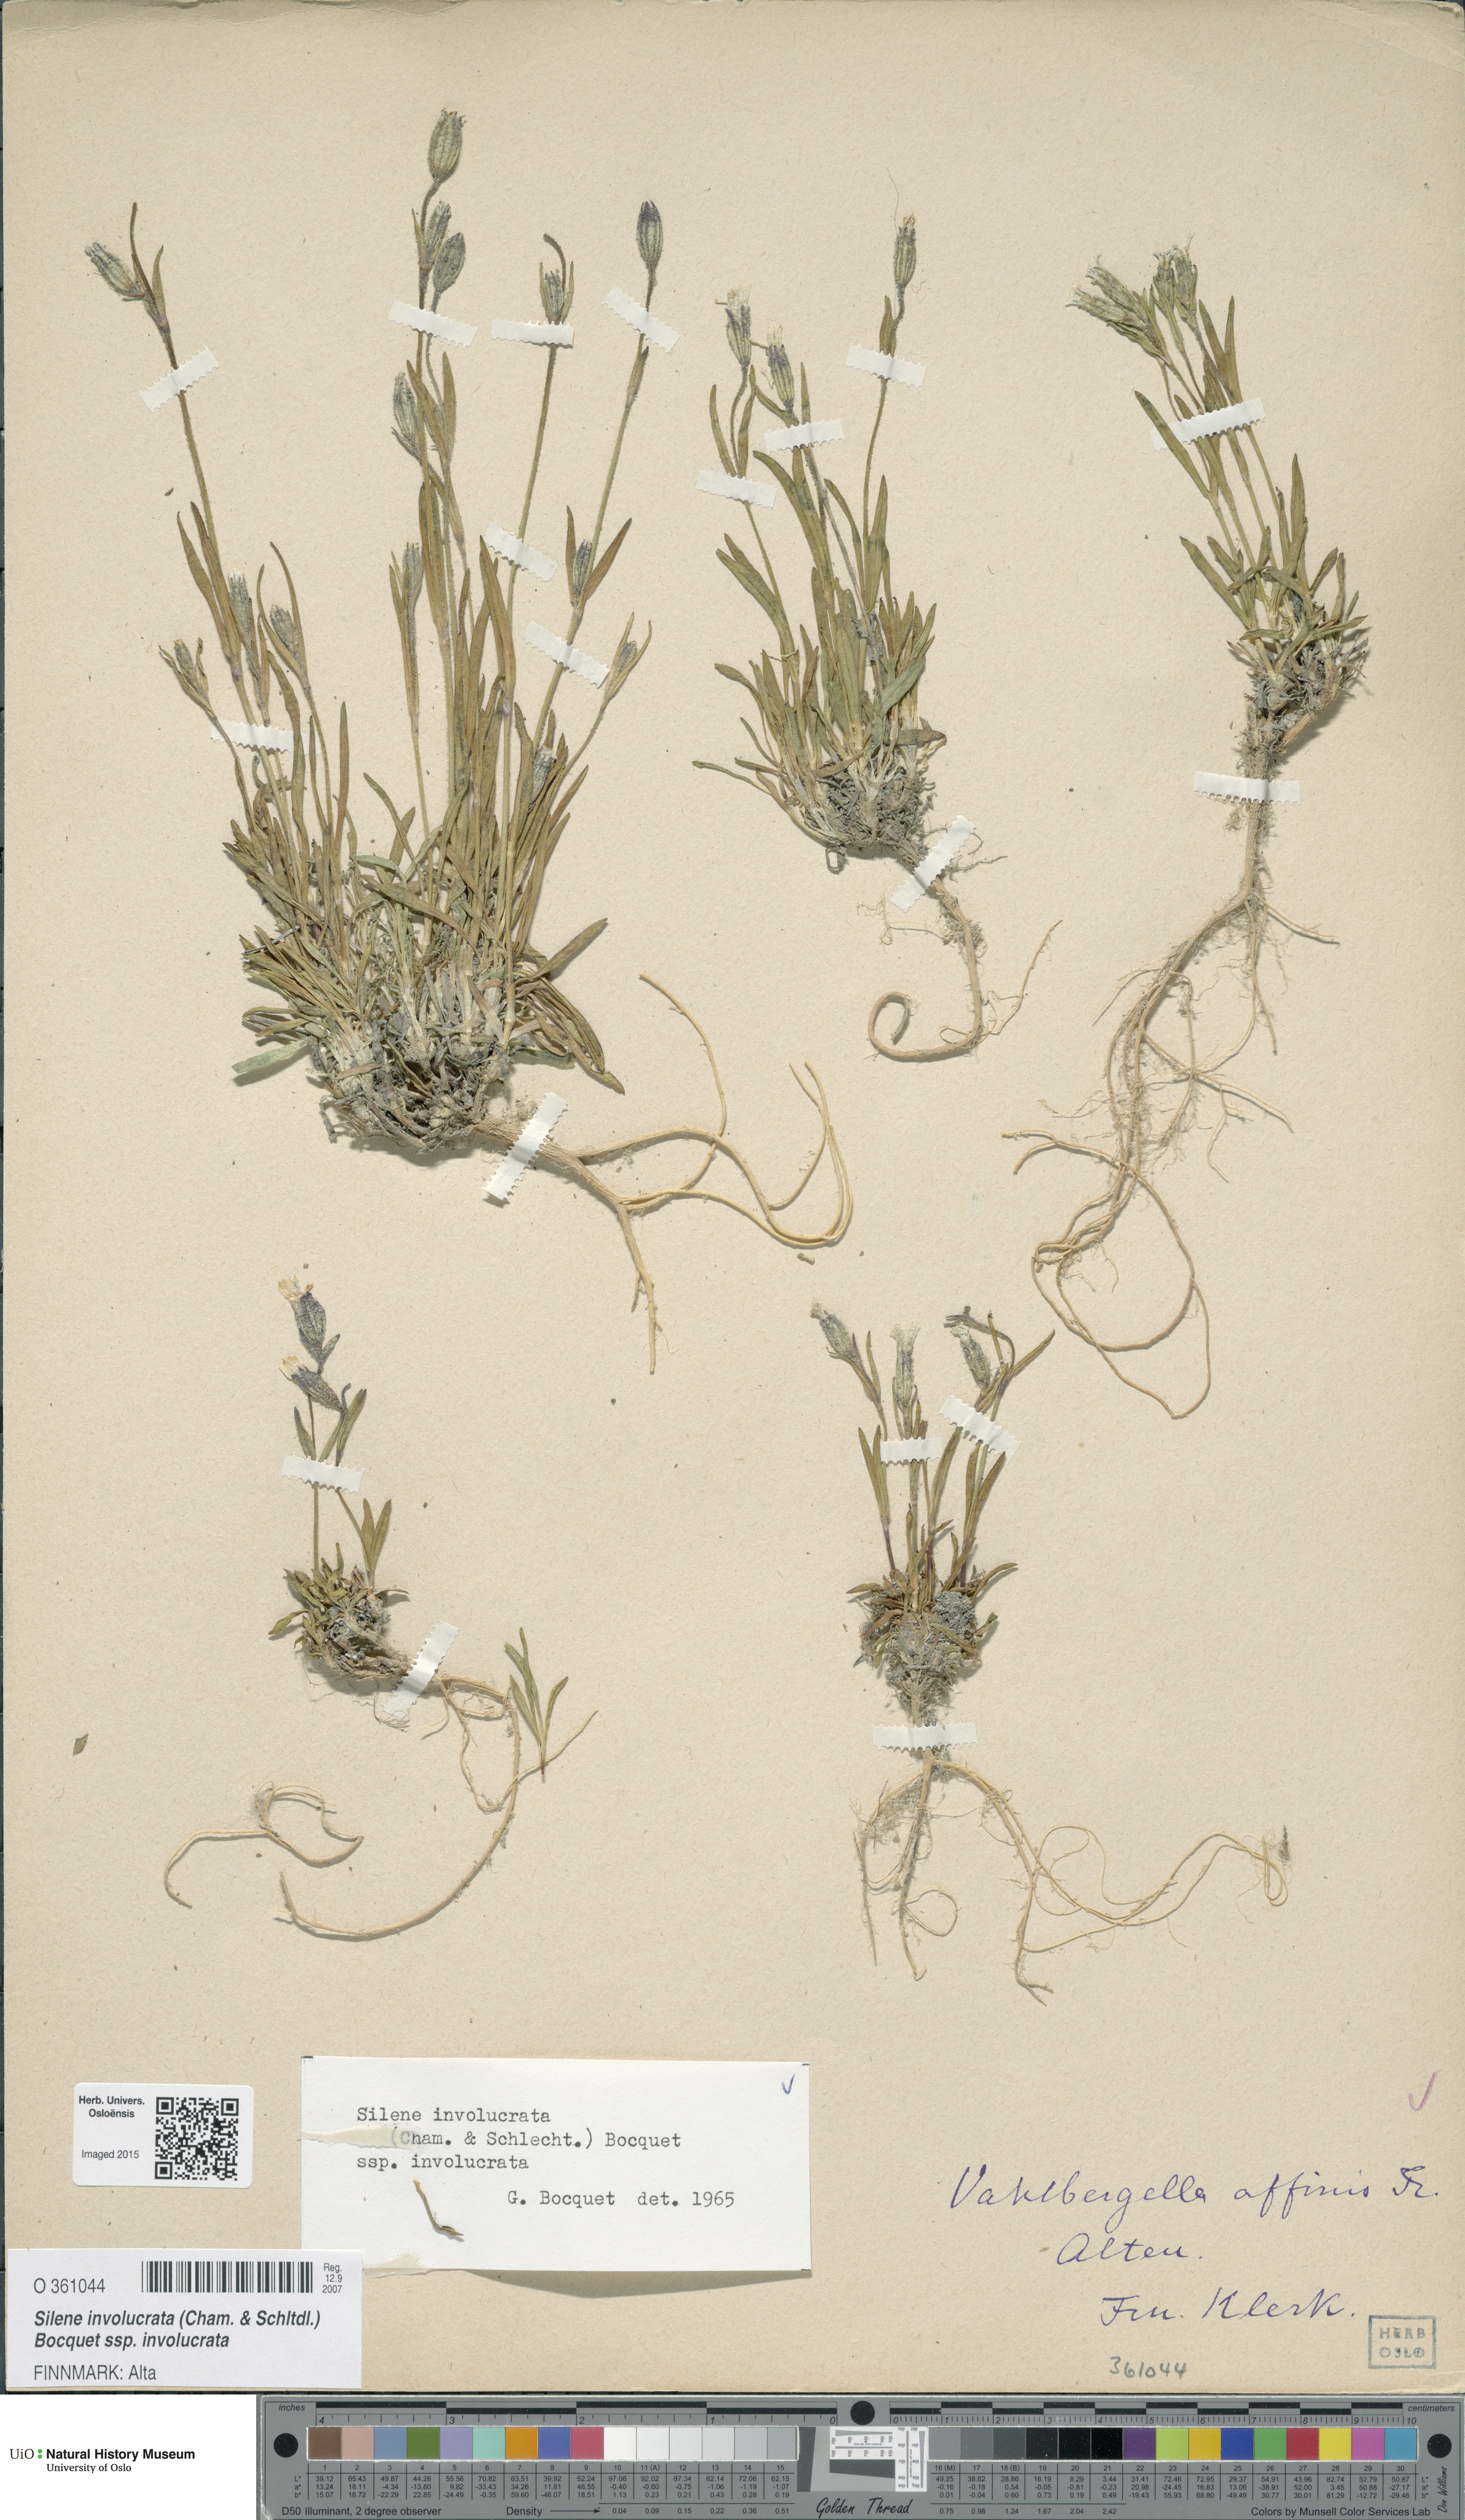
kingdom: Plantae
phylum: Tracheophyta
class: Magnoliopsida
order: Caryophyllales
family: Caryophyllaceae
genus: Silene
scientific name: Silene involucrata
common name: Greater arctic campion
